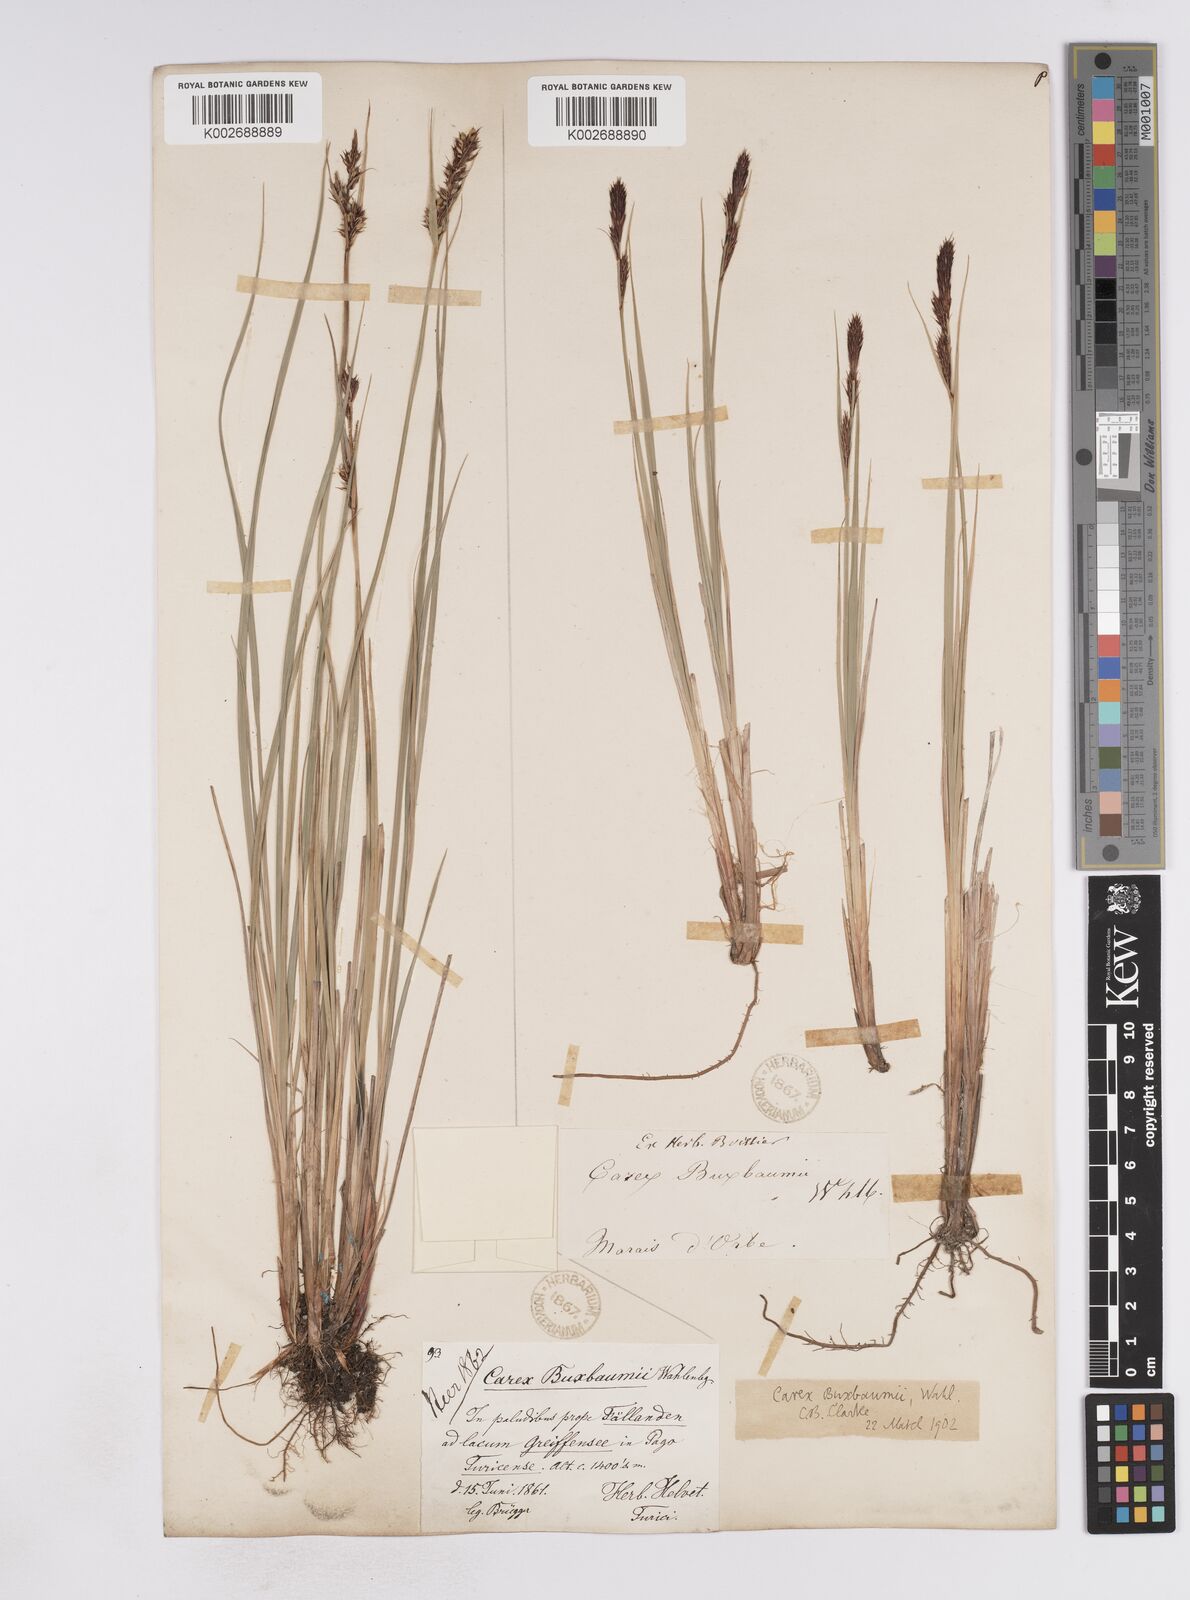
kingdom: Plantae
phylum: Tracheophyta
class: Liliopsida
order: Poales
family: Cyperaceae
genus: Carex
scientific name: Carex buxbaumii
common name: Club sedge
